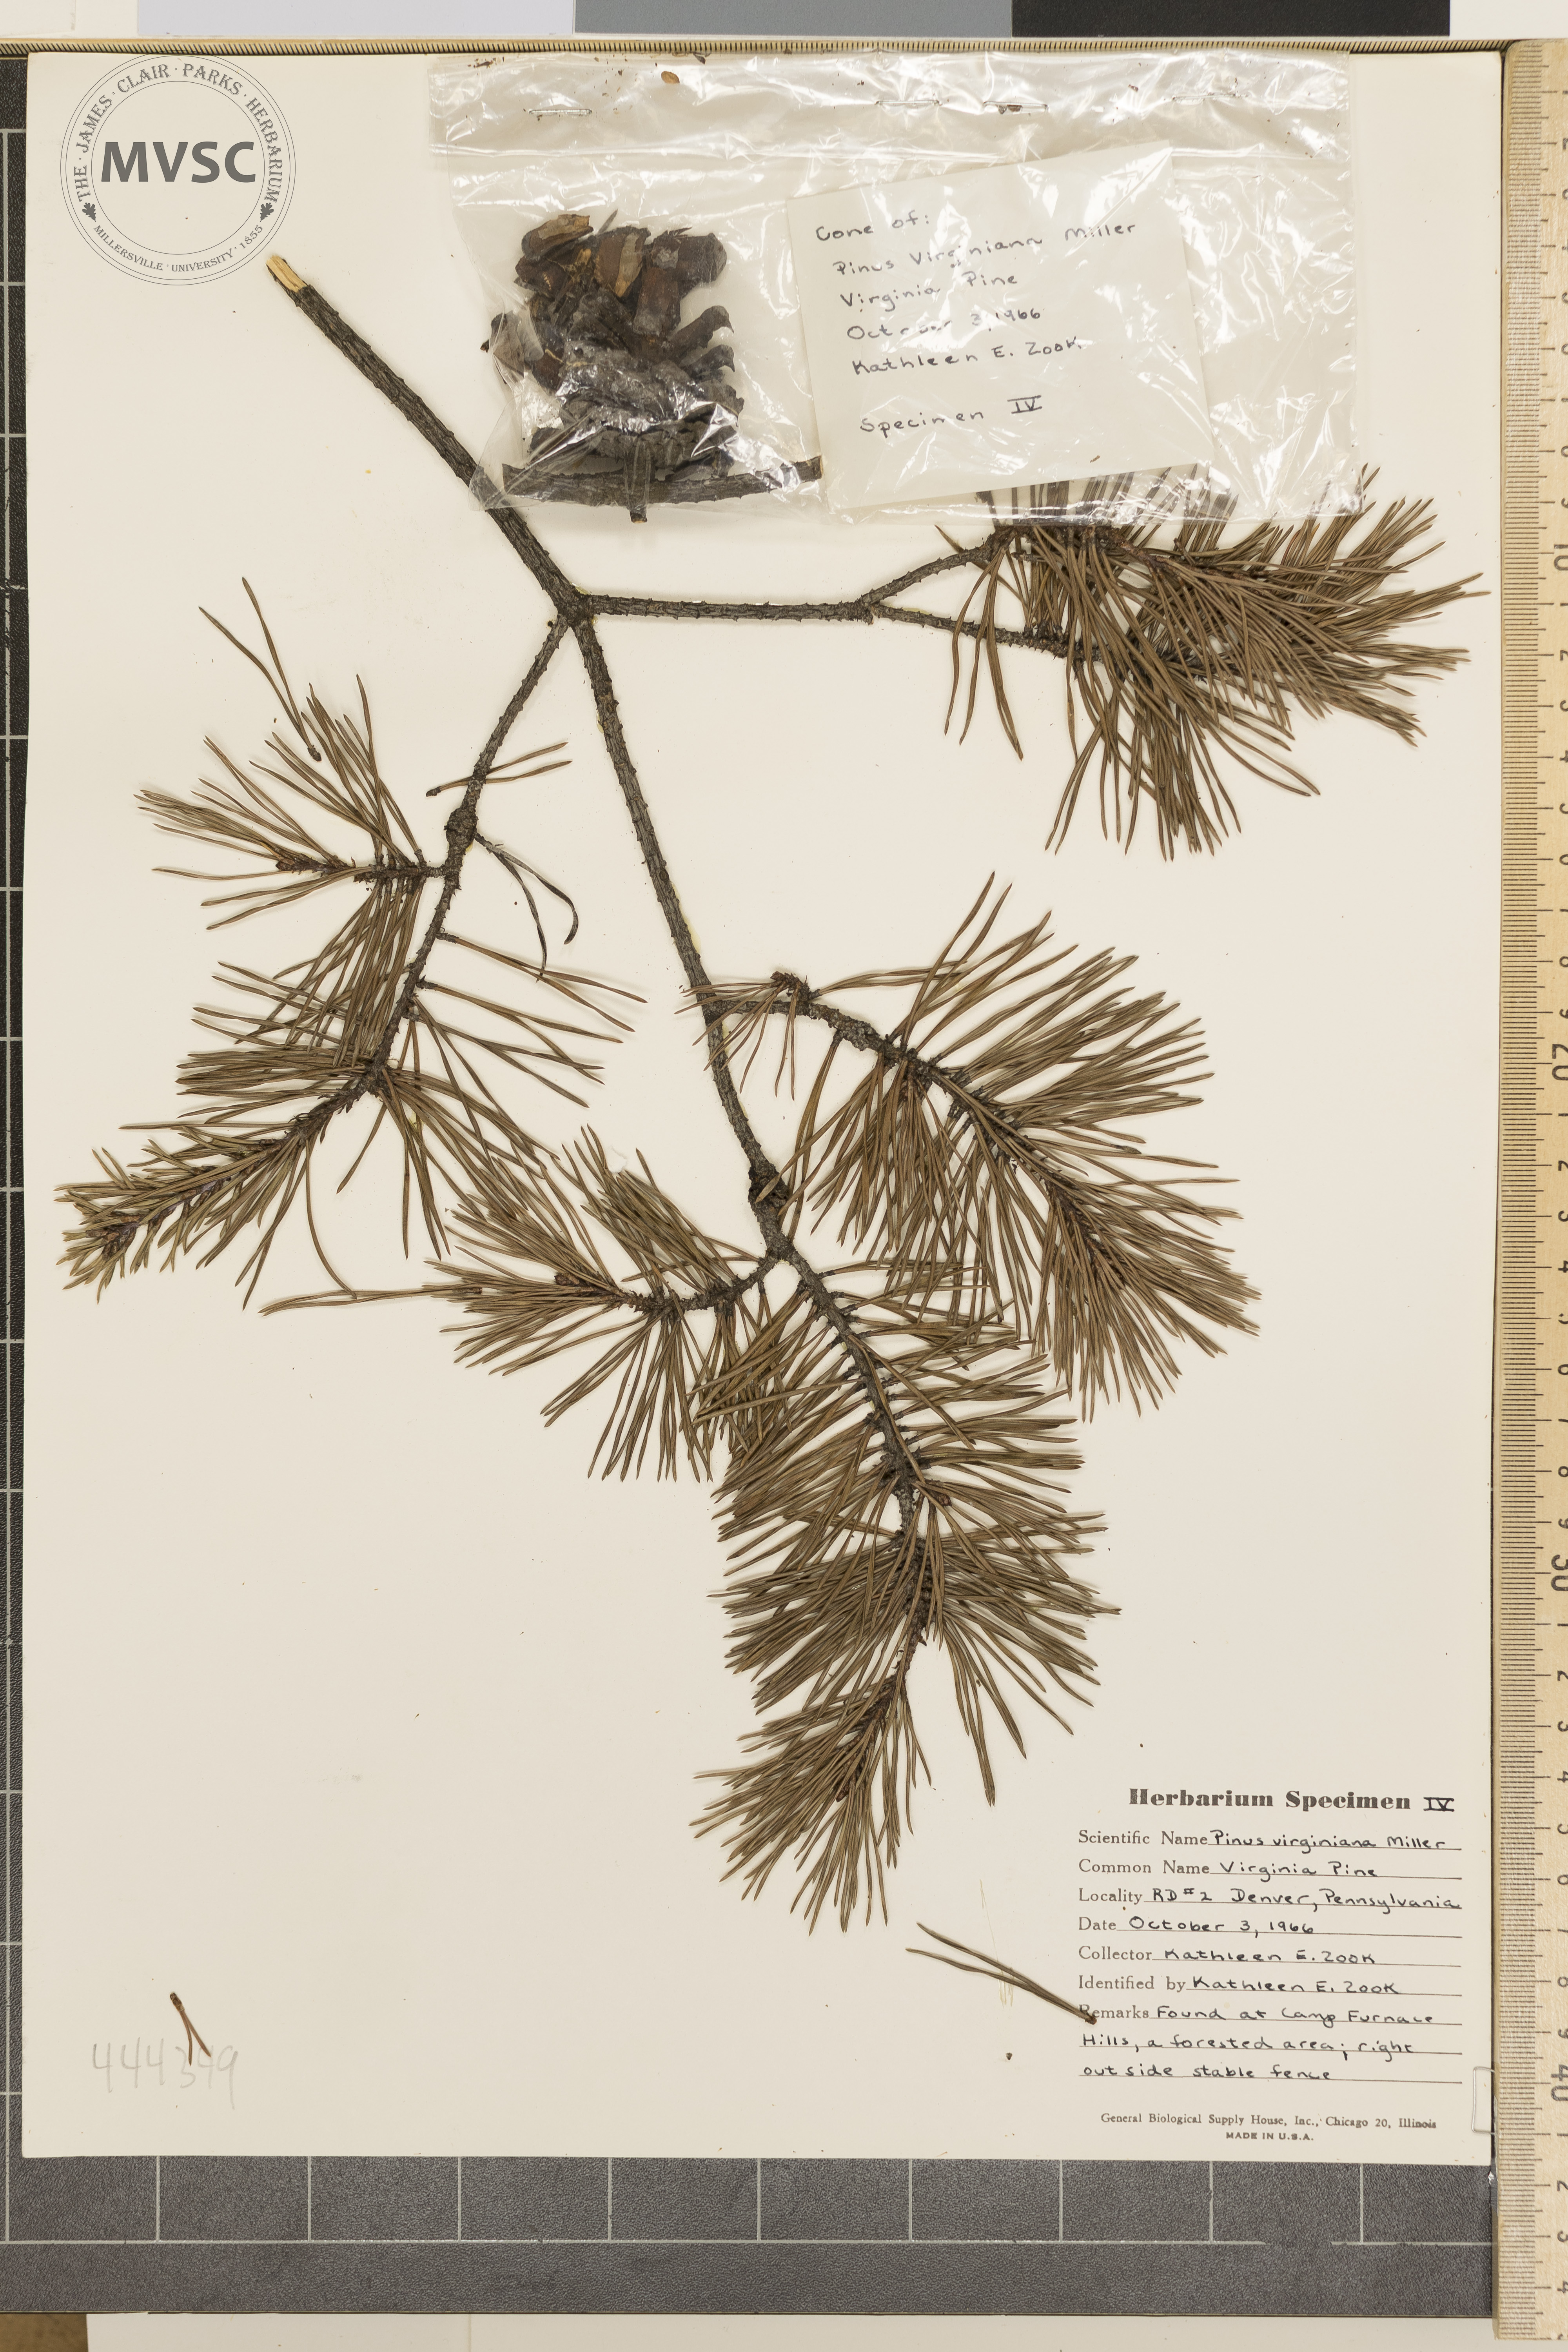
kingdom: Plantae
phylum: Tracheophyta
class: Pinopsida
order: Pinales
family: Pinaceae
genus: Pinus
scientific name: Pinus virginiana
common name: Virginia pine
